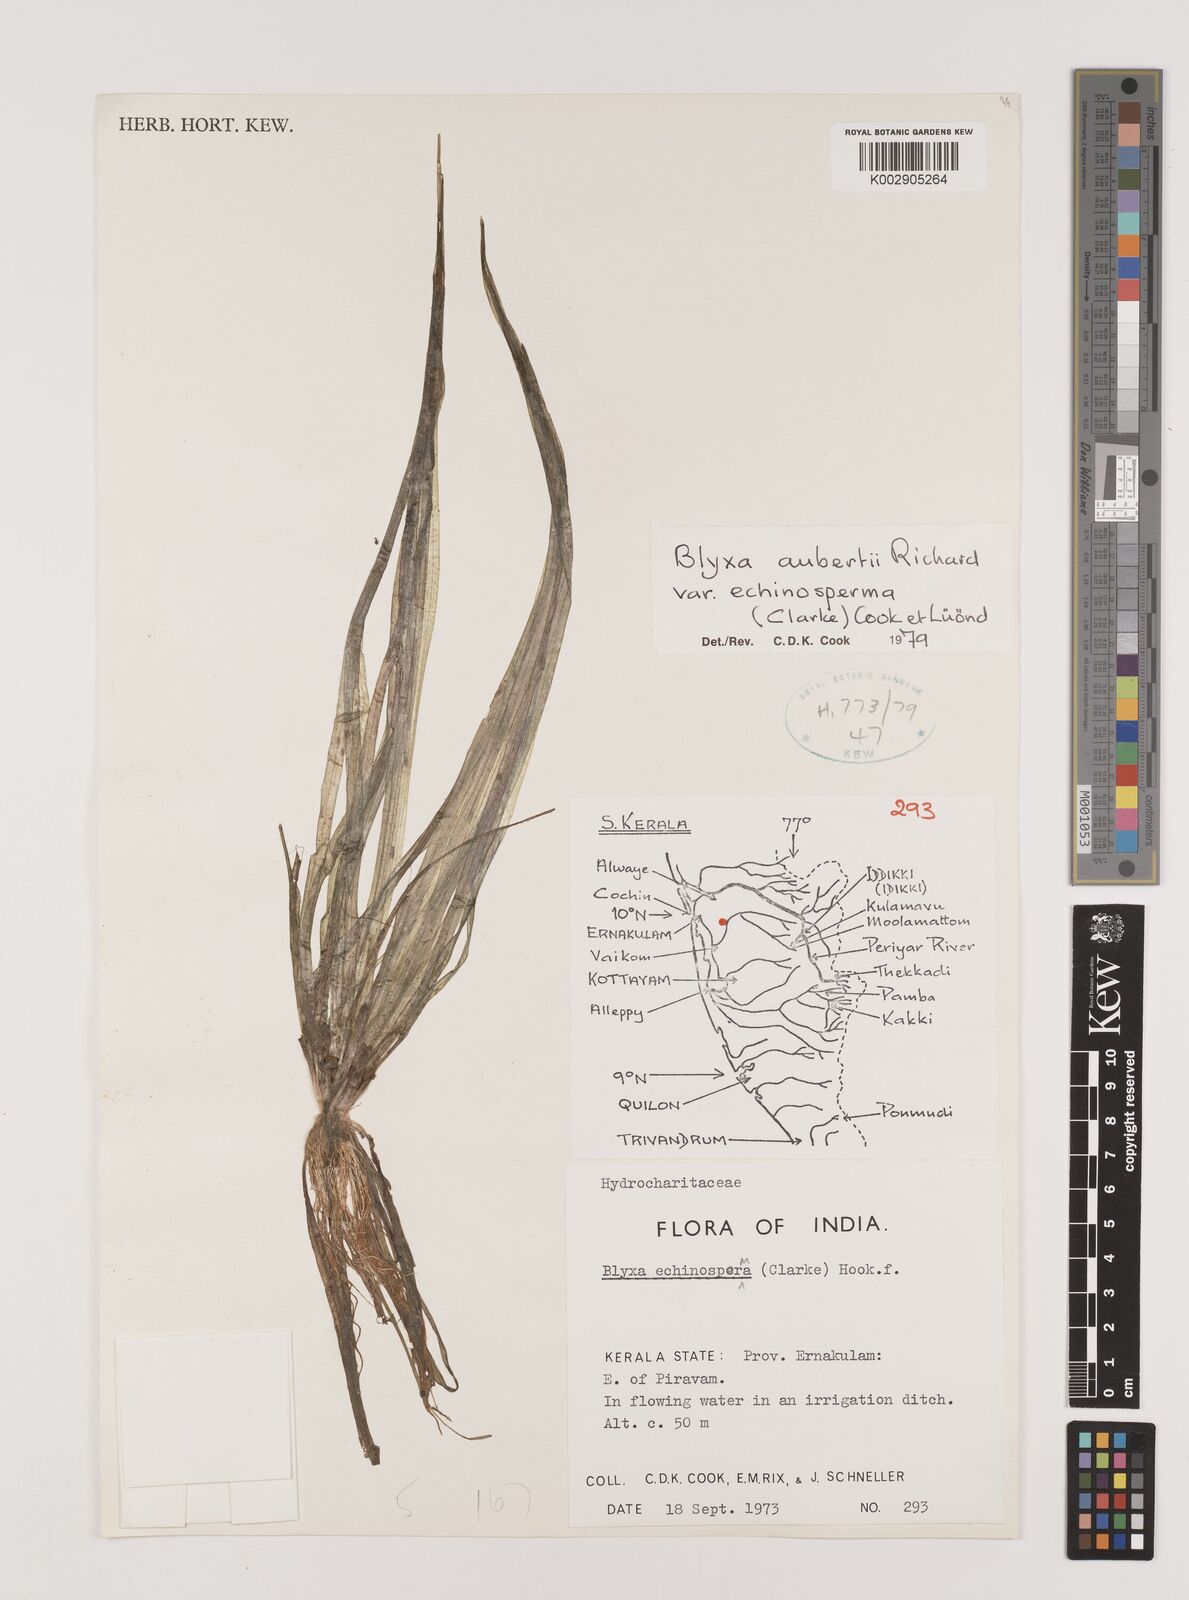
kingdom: Plantae
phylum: Tracheophyta
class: Liliopsida
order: Alismatales
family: Hydrocharitaceae
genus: Blyxa
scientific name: Blyxa echinosperma
